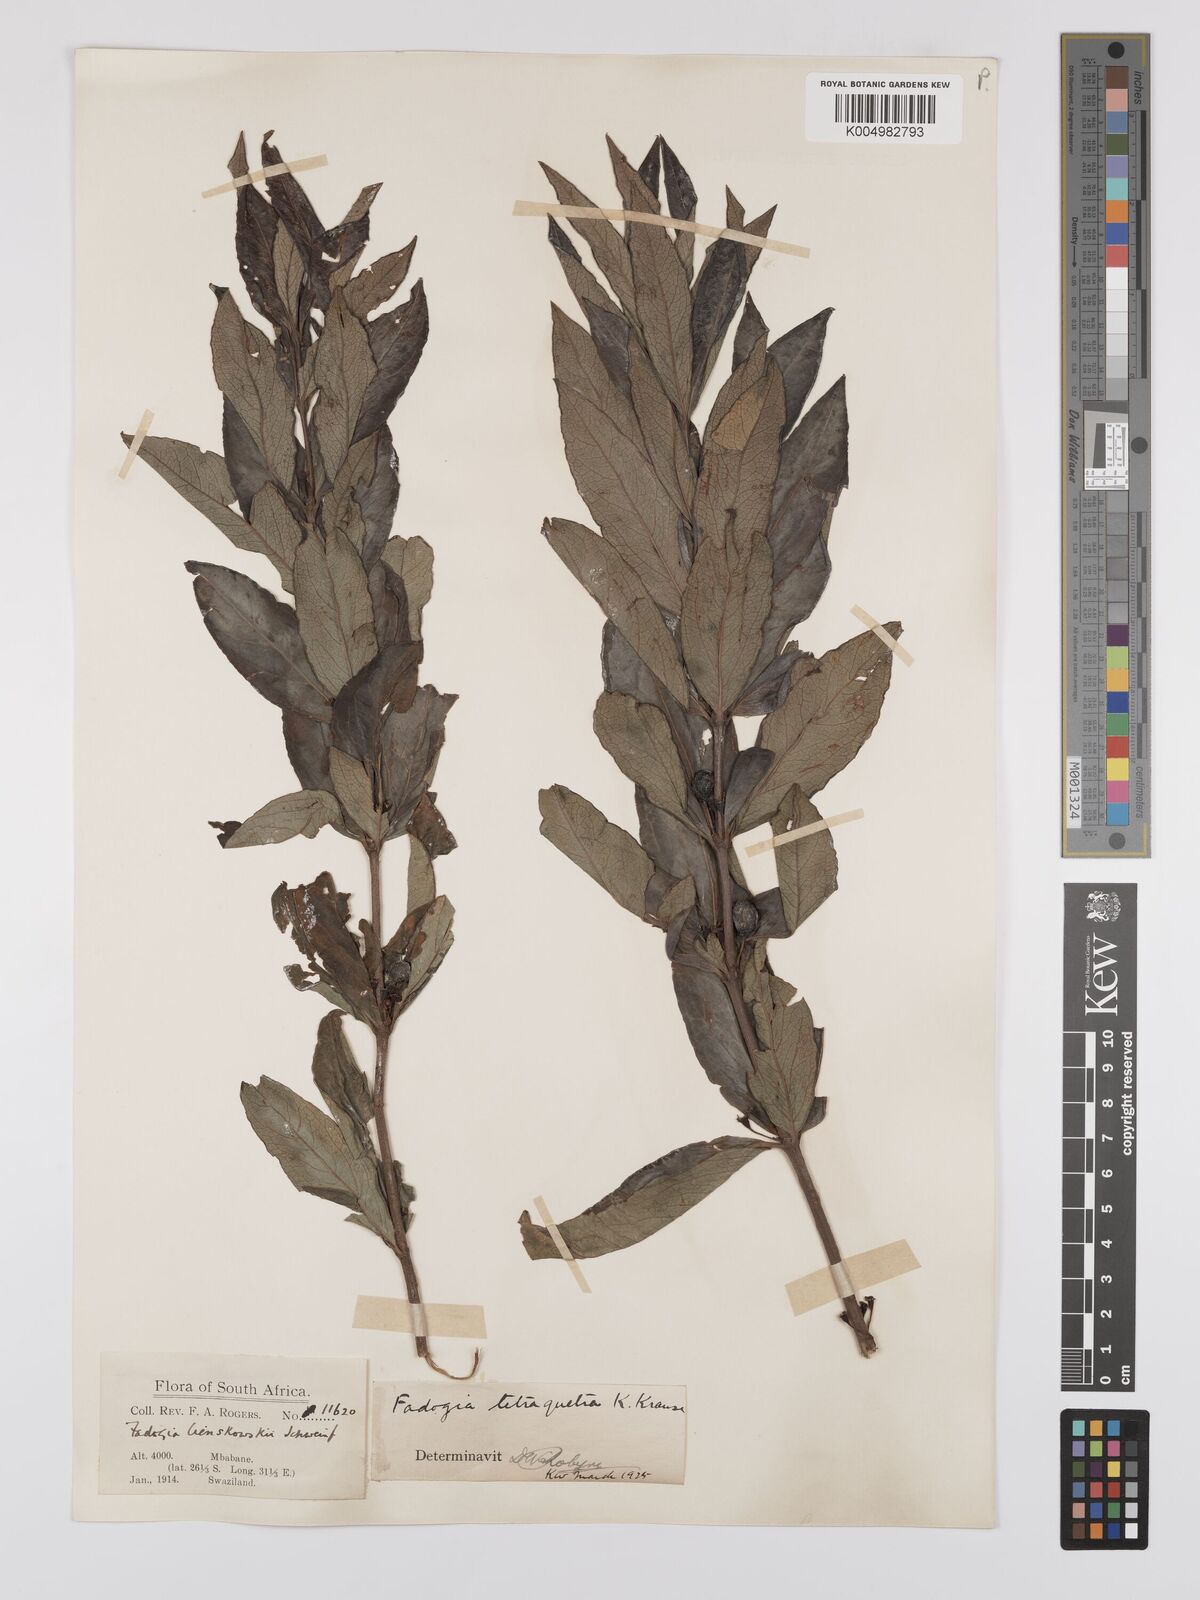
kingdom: Plantae
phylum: Tracheophyta
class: Magnoliopsida
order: Gentianales
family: Rubiaceae
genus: Fadogia
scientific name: Fadogia tetraquetra
